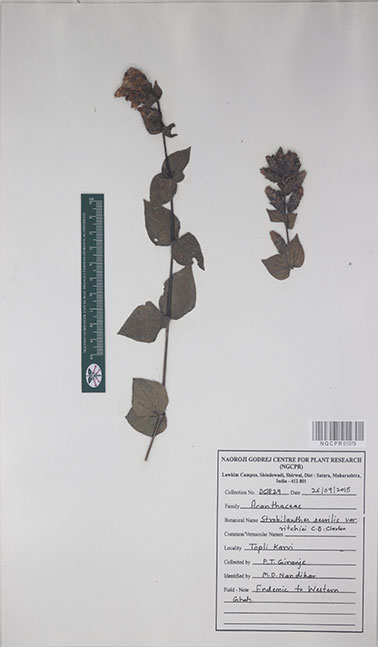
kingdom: Plantae
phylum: Tracheophyta
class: Magnoliopsida
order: Lamiales
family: Acanthaceae
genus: Strobilanthes
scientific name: Strobilanthes sessilis
